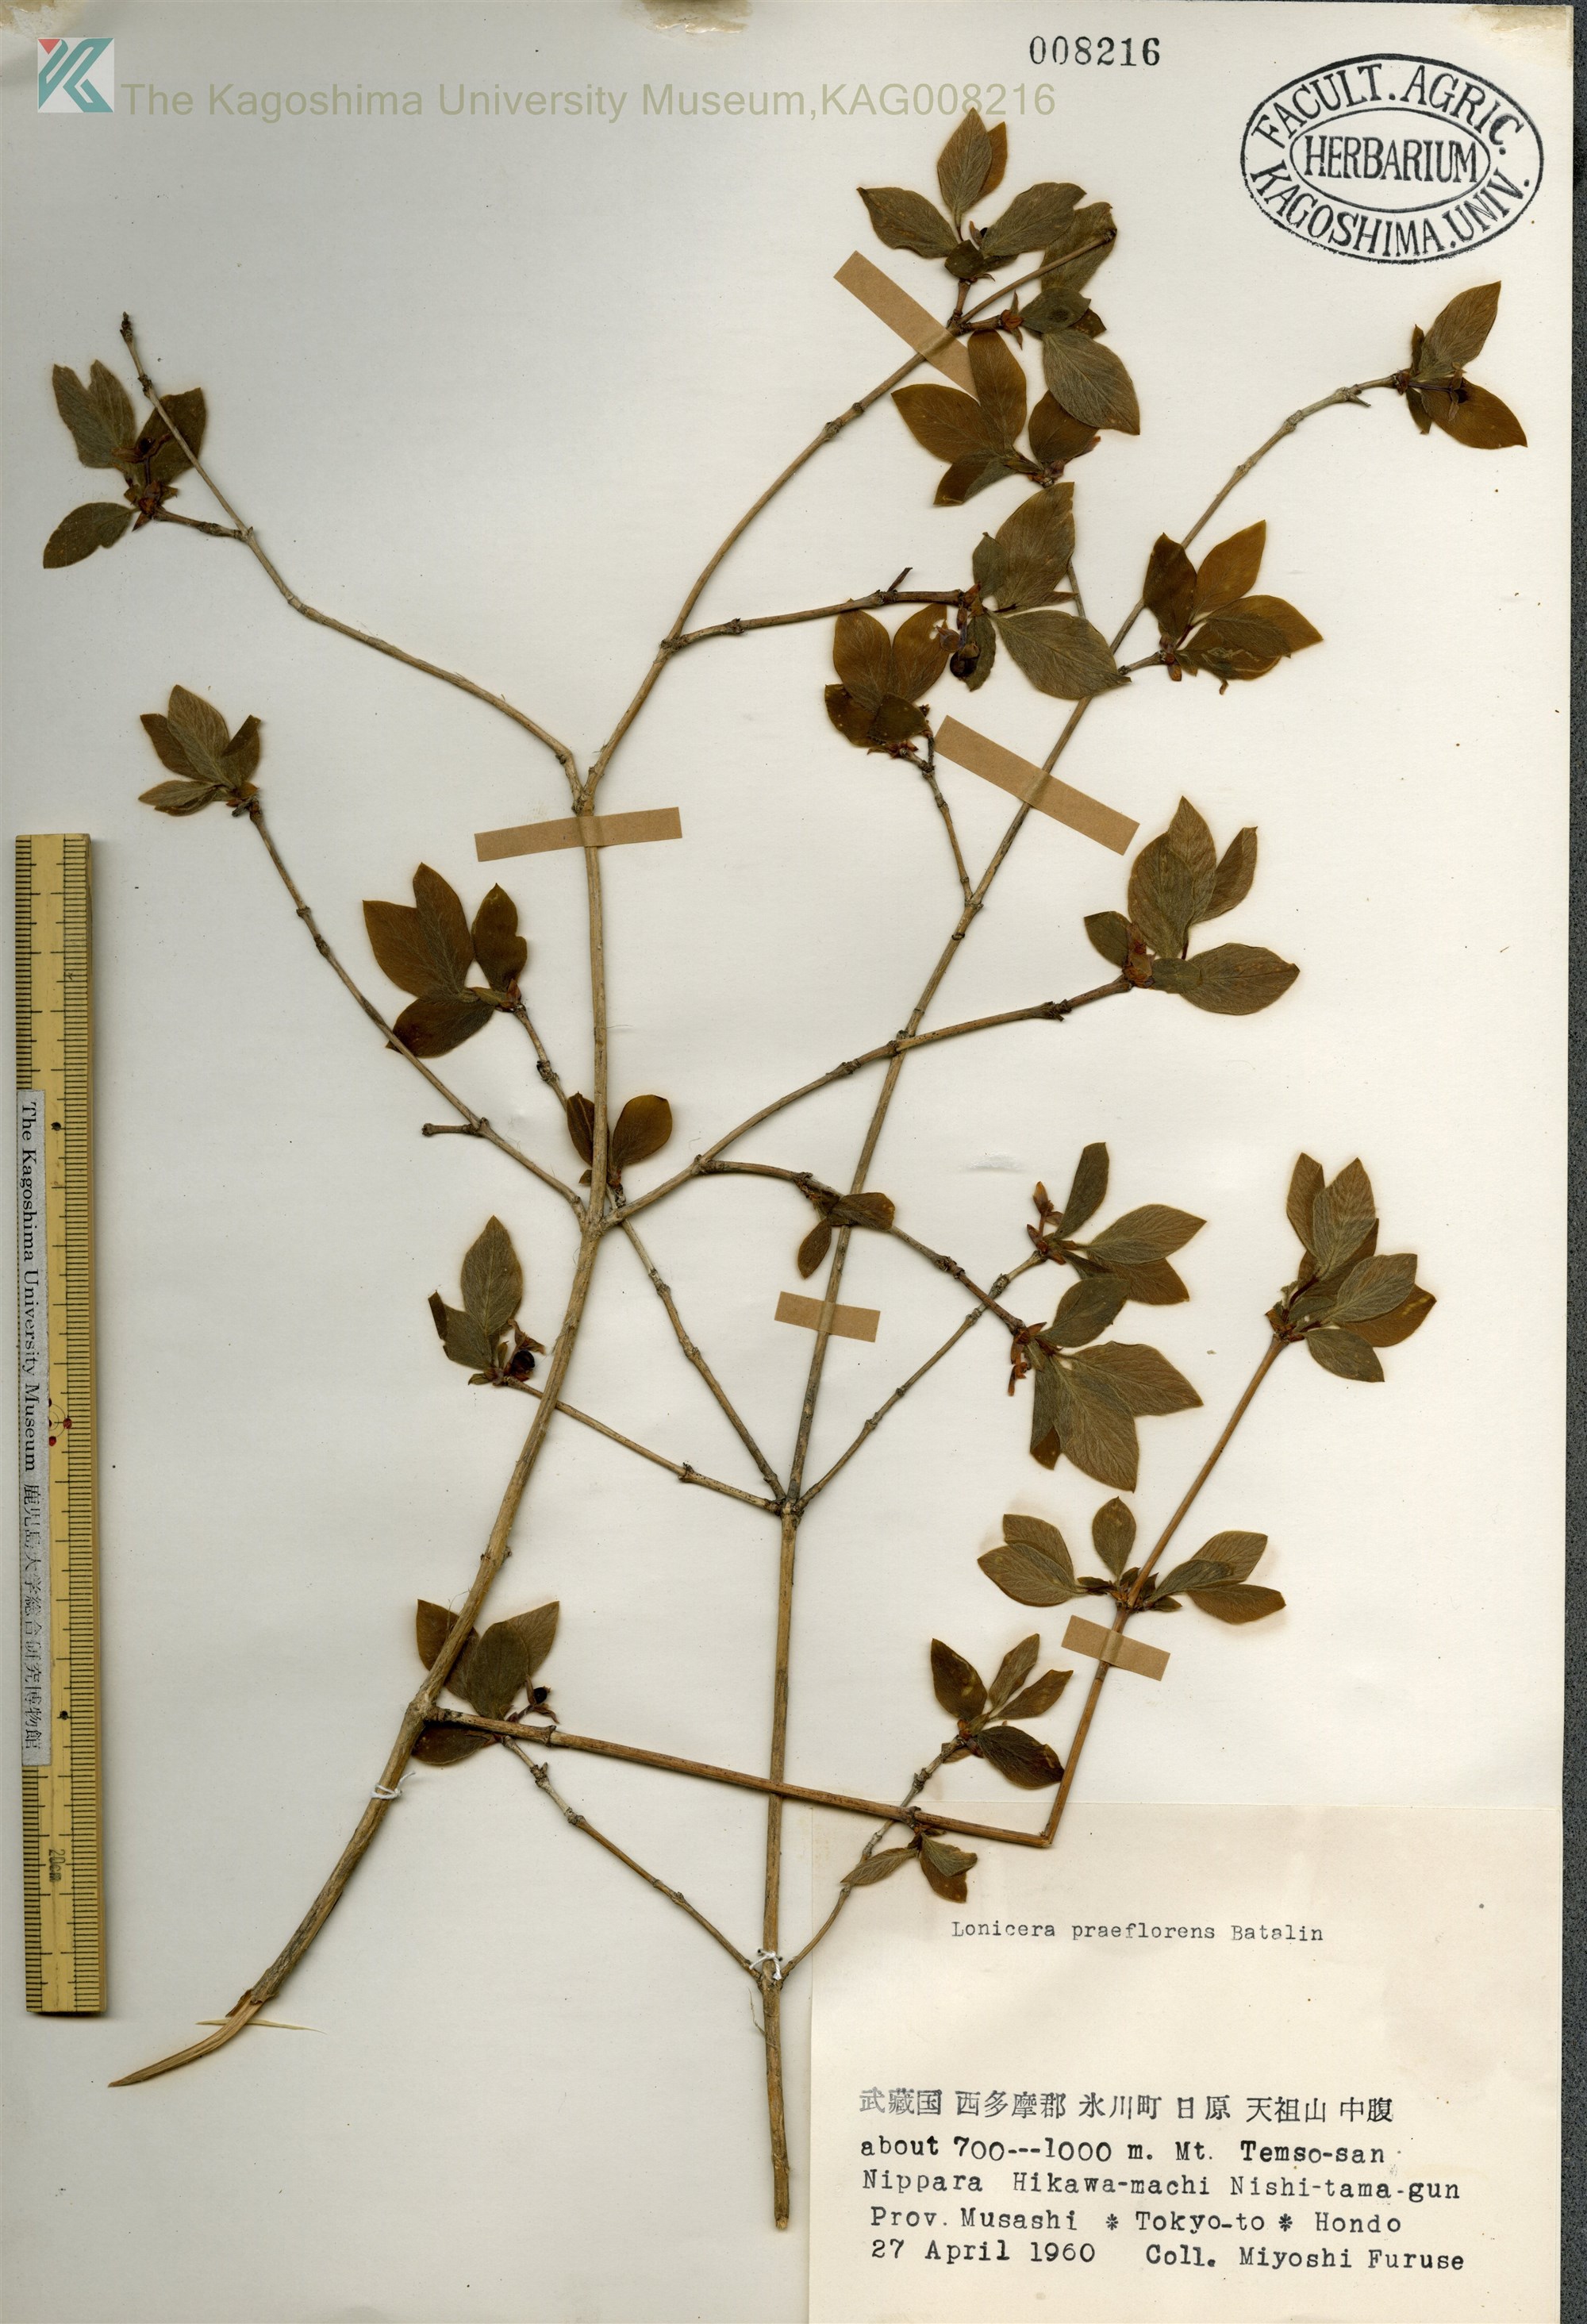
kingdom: Plantae
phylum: Tracheophyta
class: Magnoliopsida
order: Dipsacales
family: Caprifoliaceae
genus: Lonicera
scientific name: Lonicera praeflorens
